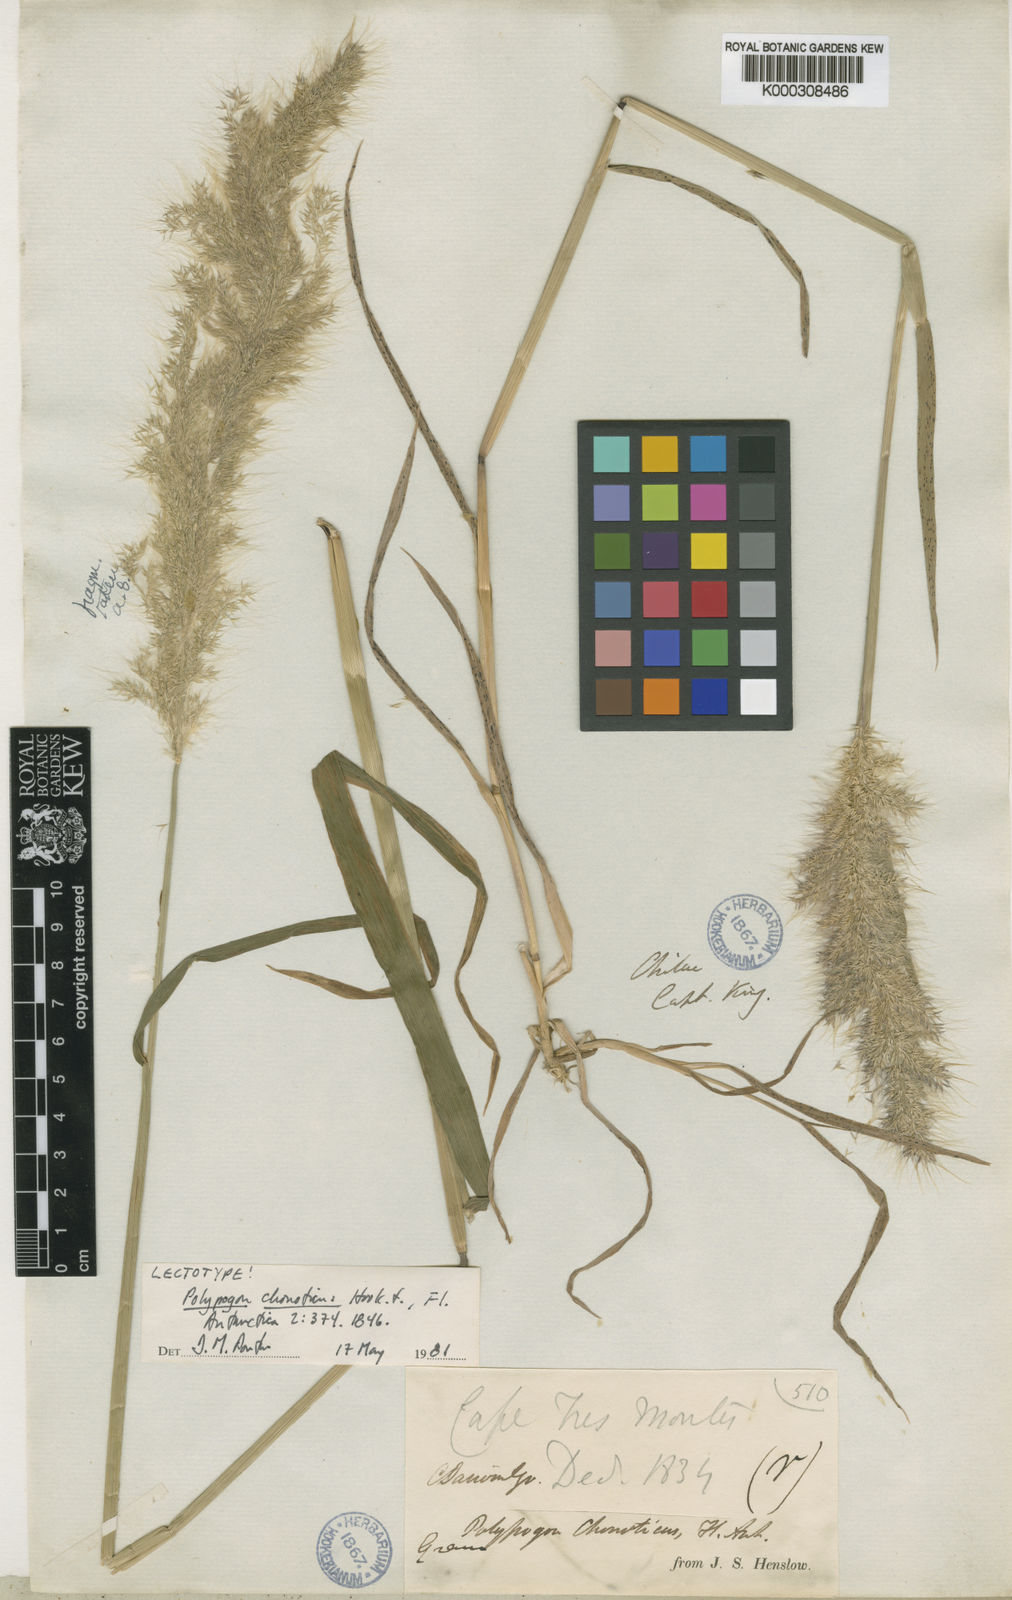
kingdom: Plantae
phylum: Tracheophyta
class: Liliopsida
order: Poales
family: Poaceae
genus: Polypogon
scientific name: Polypogon australis
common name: Chilean rabbitsfoot grass
